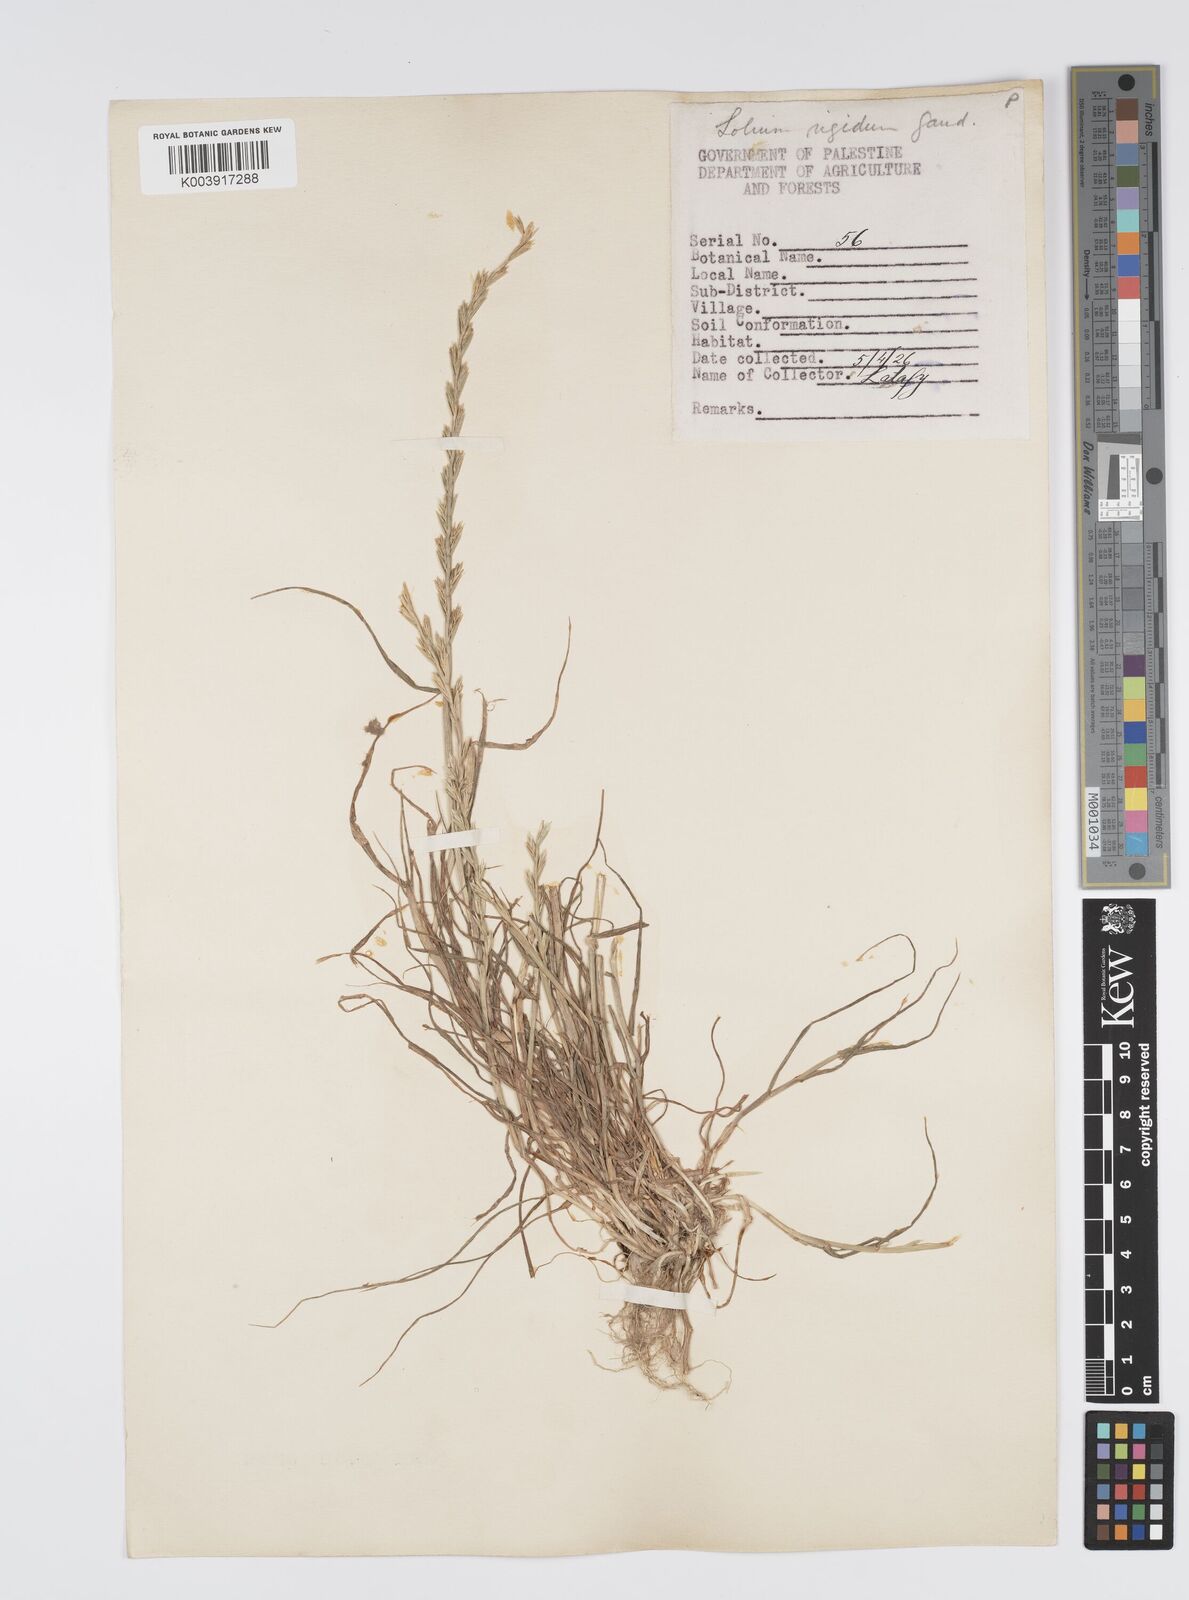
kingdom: Plantae
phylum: Tracheophyta
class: Liliopsida
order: Poales
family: Poaceae
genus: Lolium
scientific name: Lolium rigidum
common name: Wimmera ryegrass
